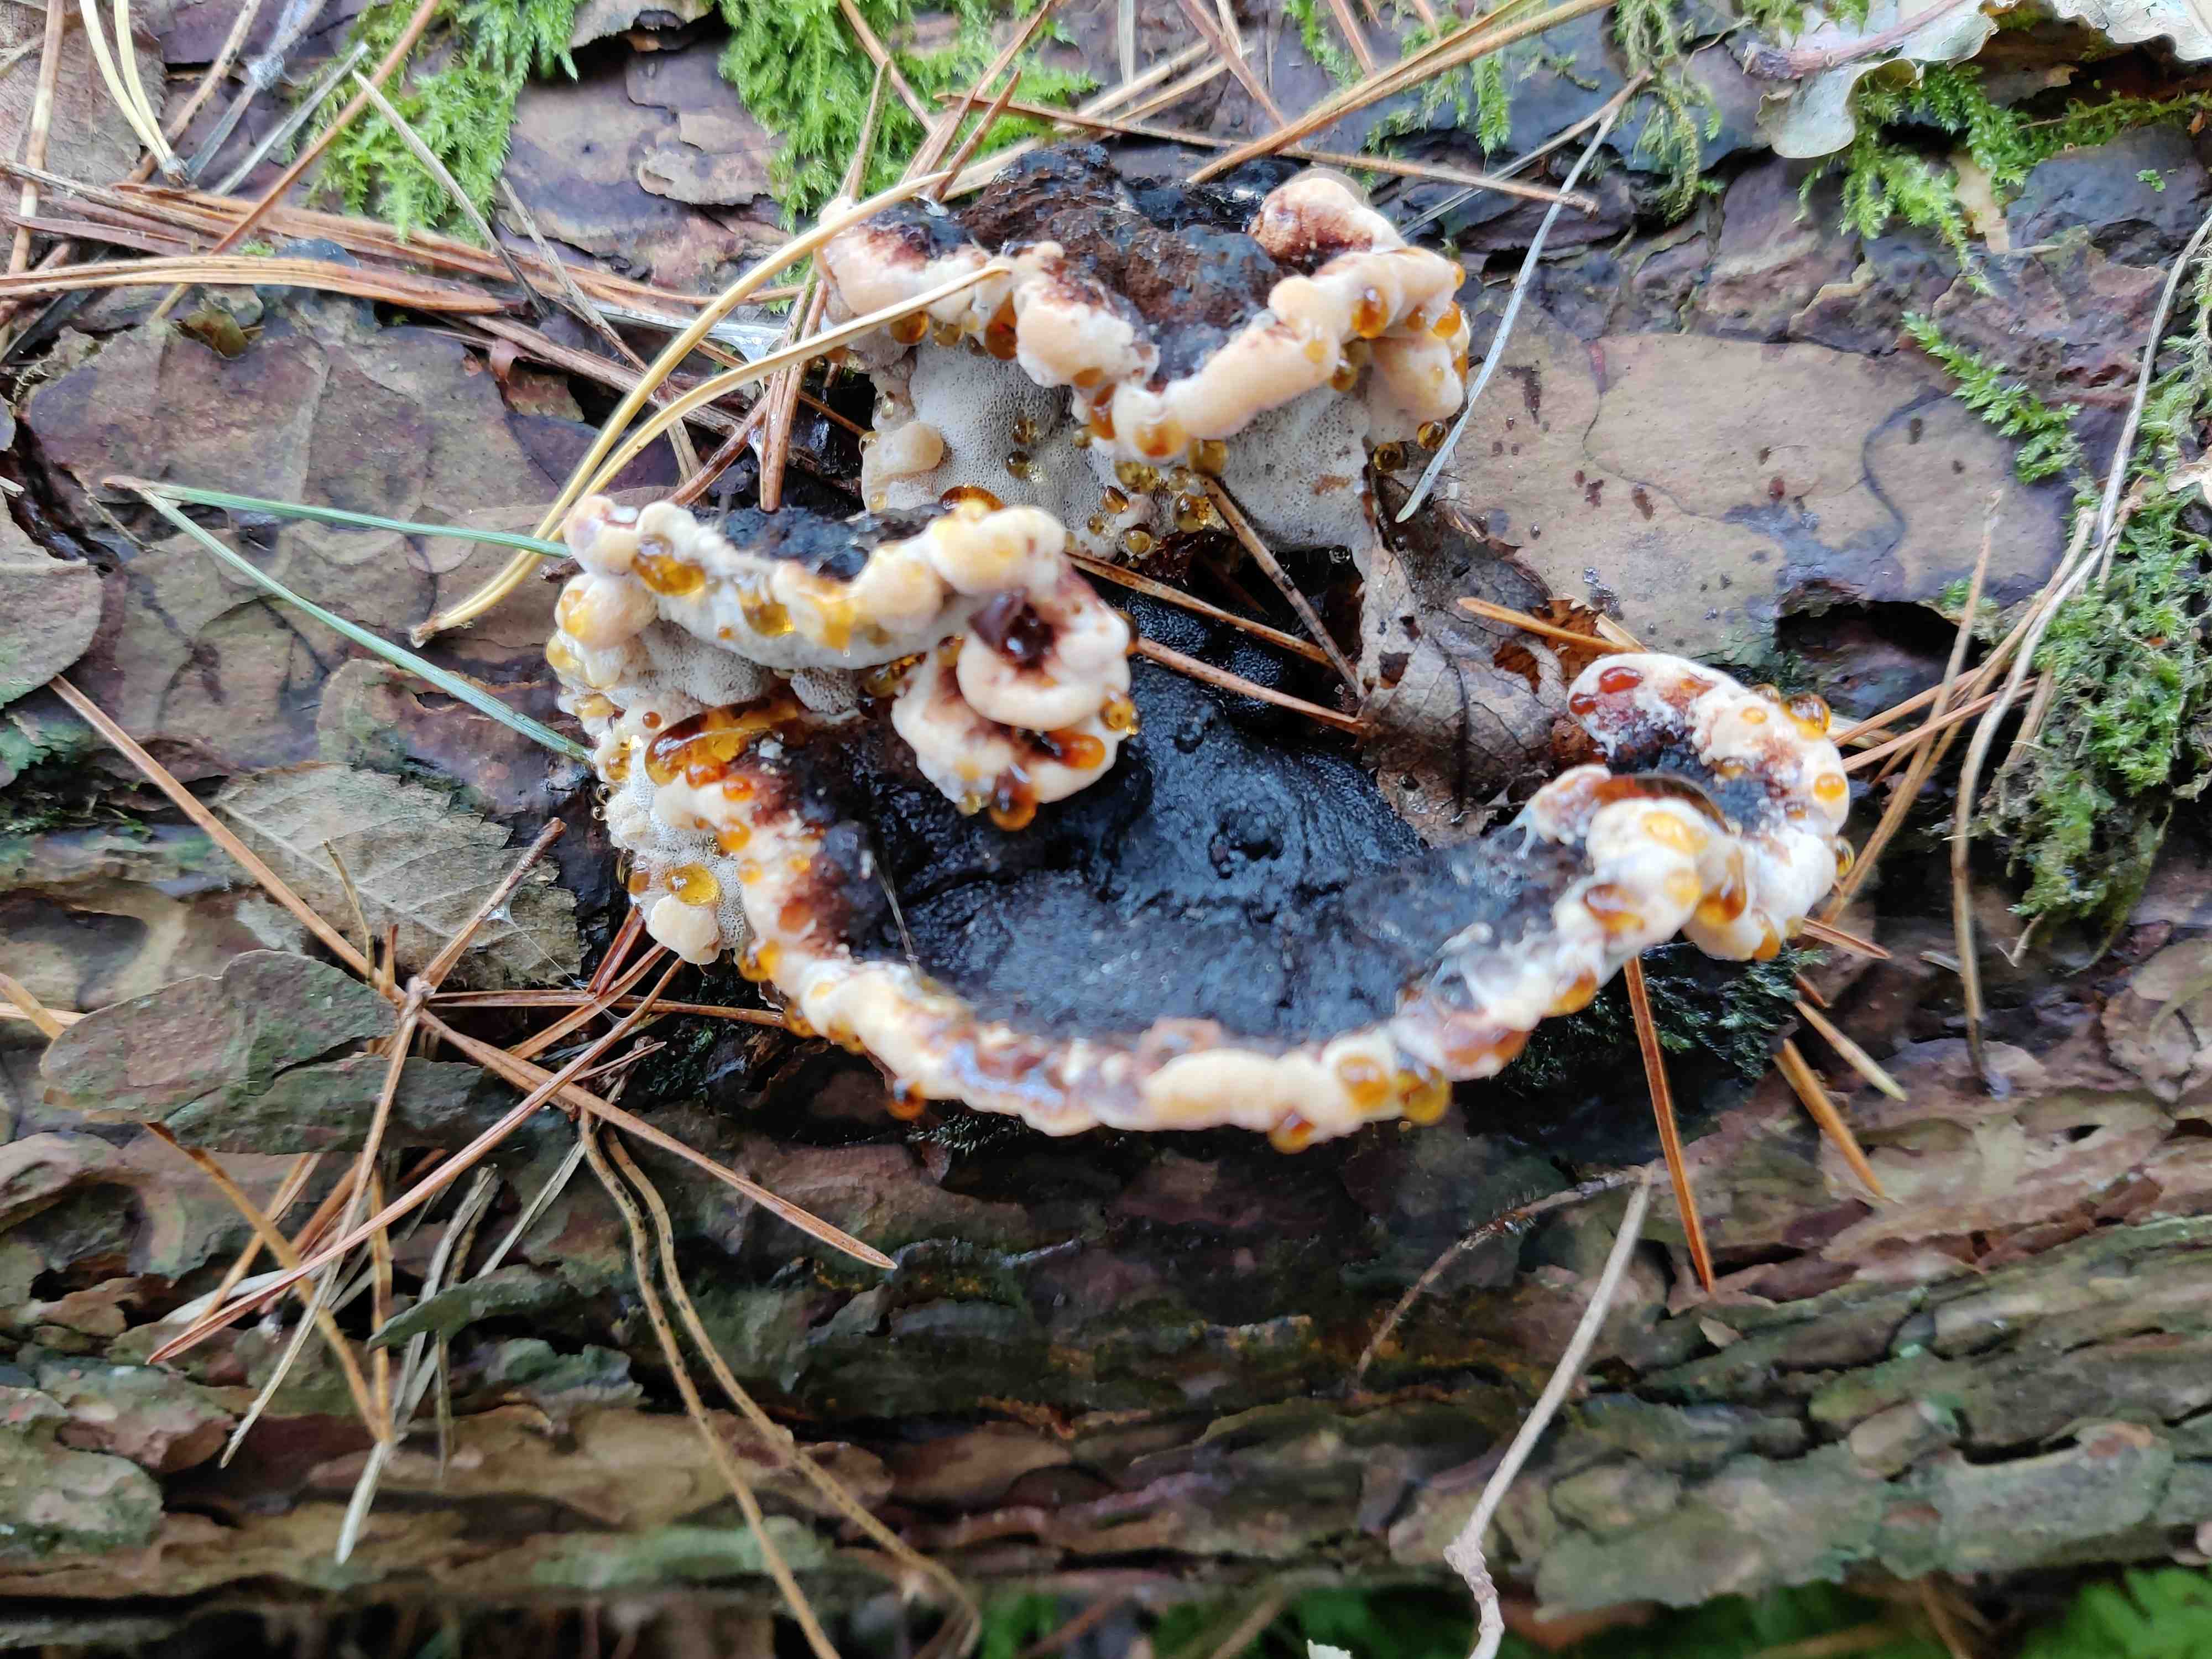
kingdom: Fungi
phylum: Basidiomycota
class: Agaricomycetes
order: Polyporales
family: Ischnodermataceae
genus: Ischnoderma
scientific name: Ischnoderma benzoinum
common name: gran-tjæreporesvamp
